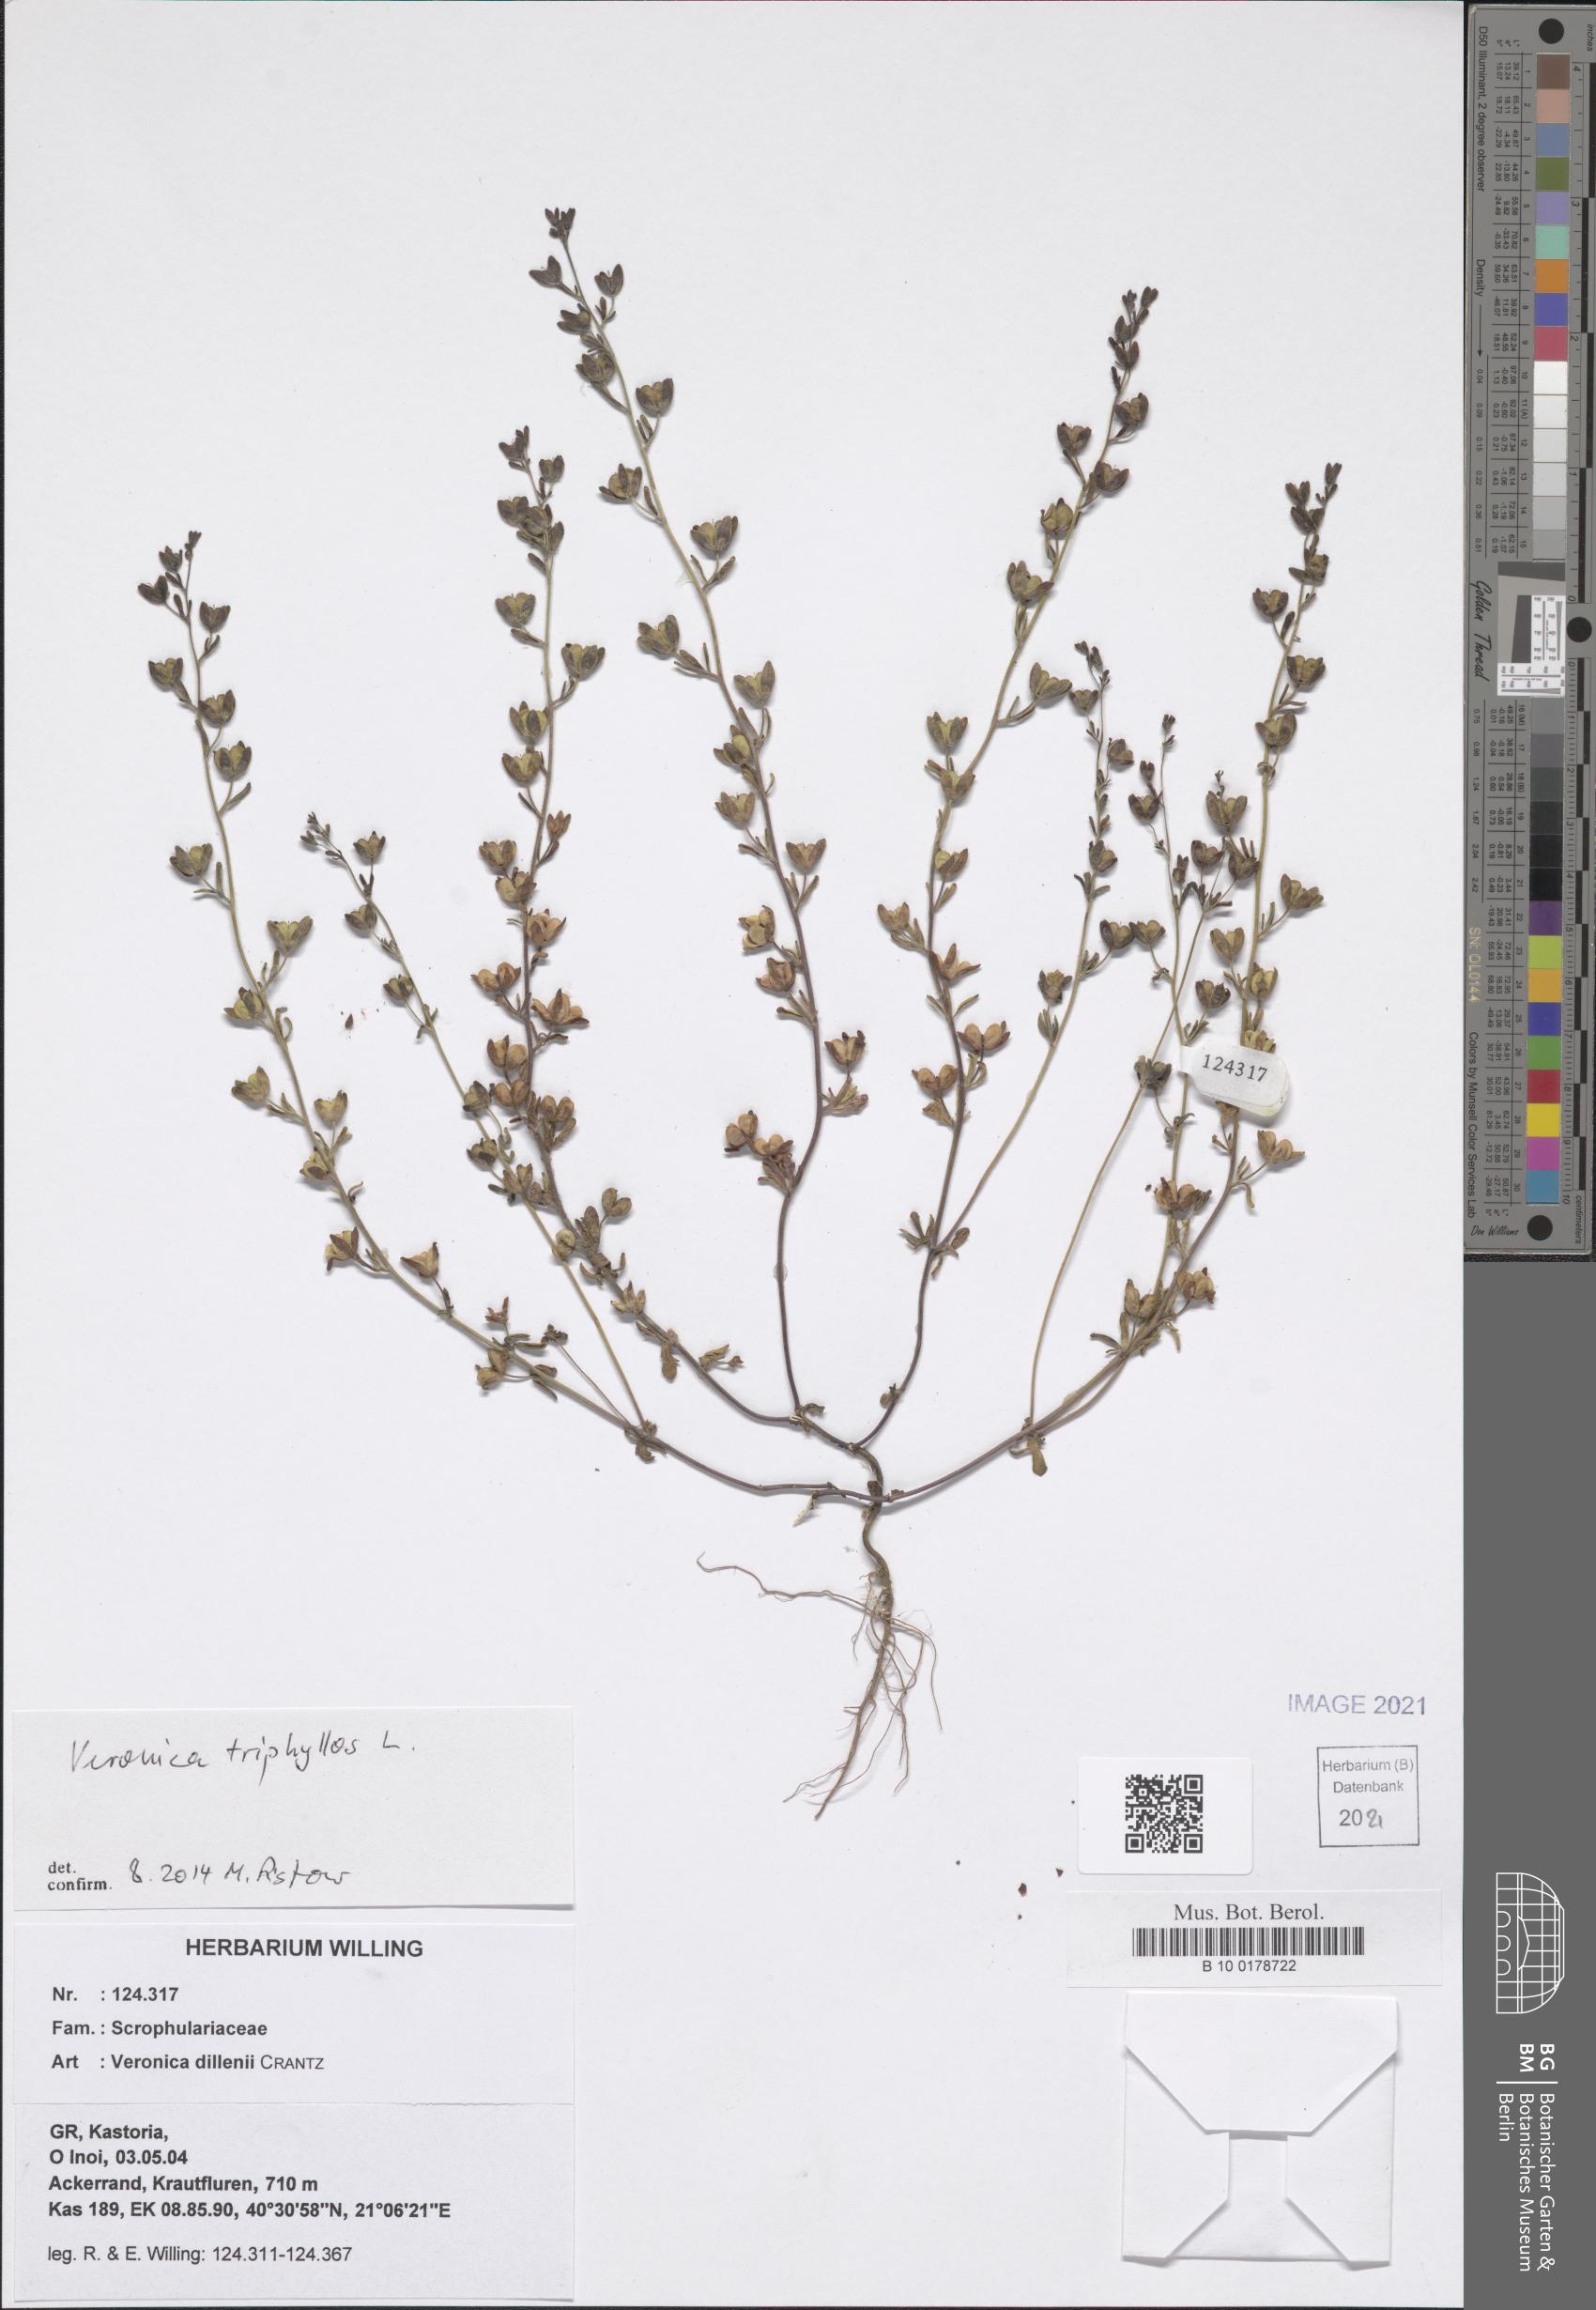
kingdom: Plantae
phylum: Tracheophyta
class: Magnoliopsida
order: Lamiales
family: Plantaginaceae
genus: Veronica
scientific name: Veronica triphyllos
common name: Fingered speedwell
